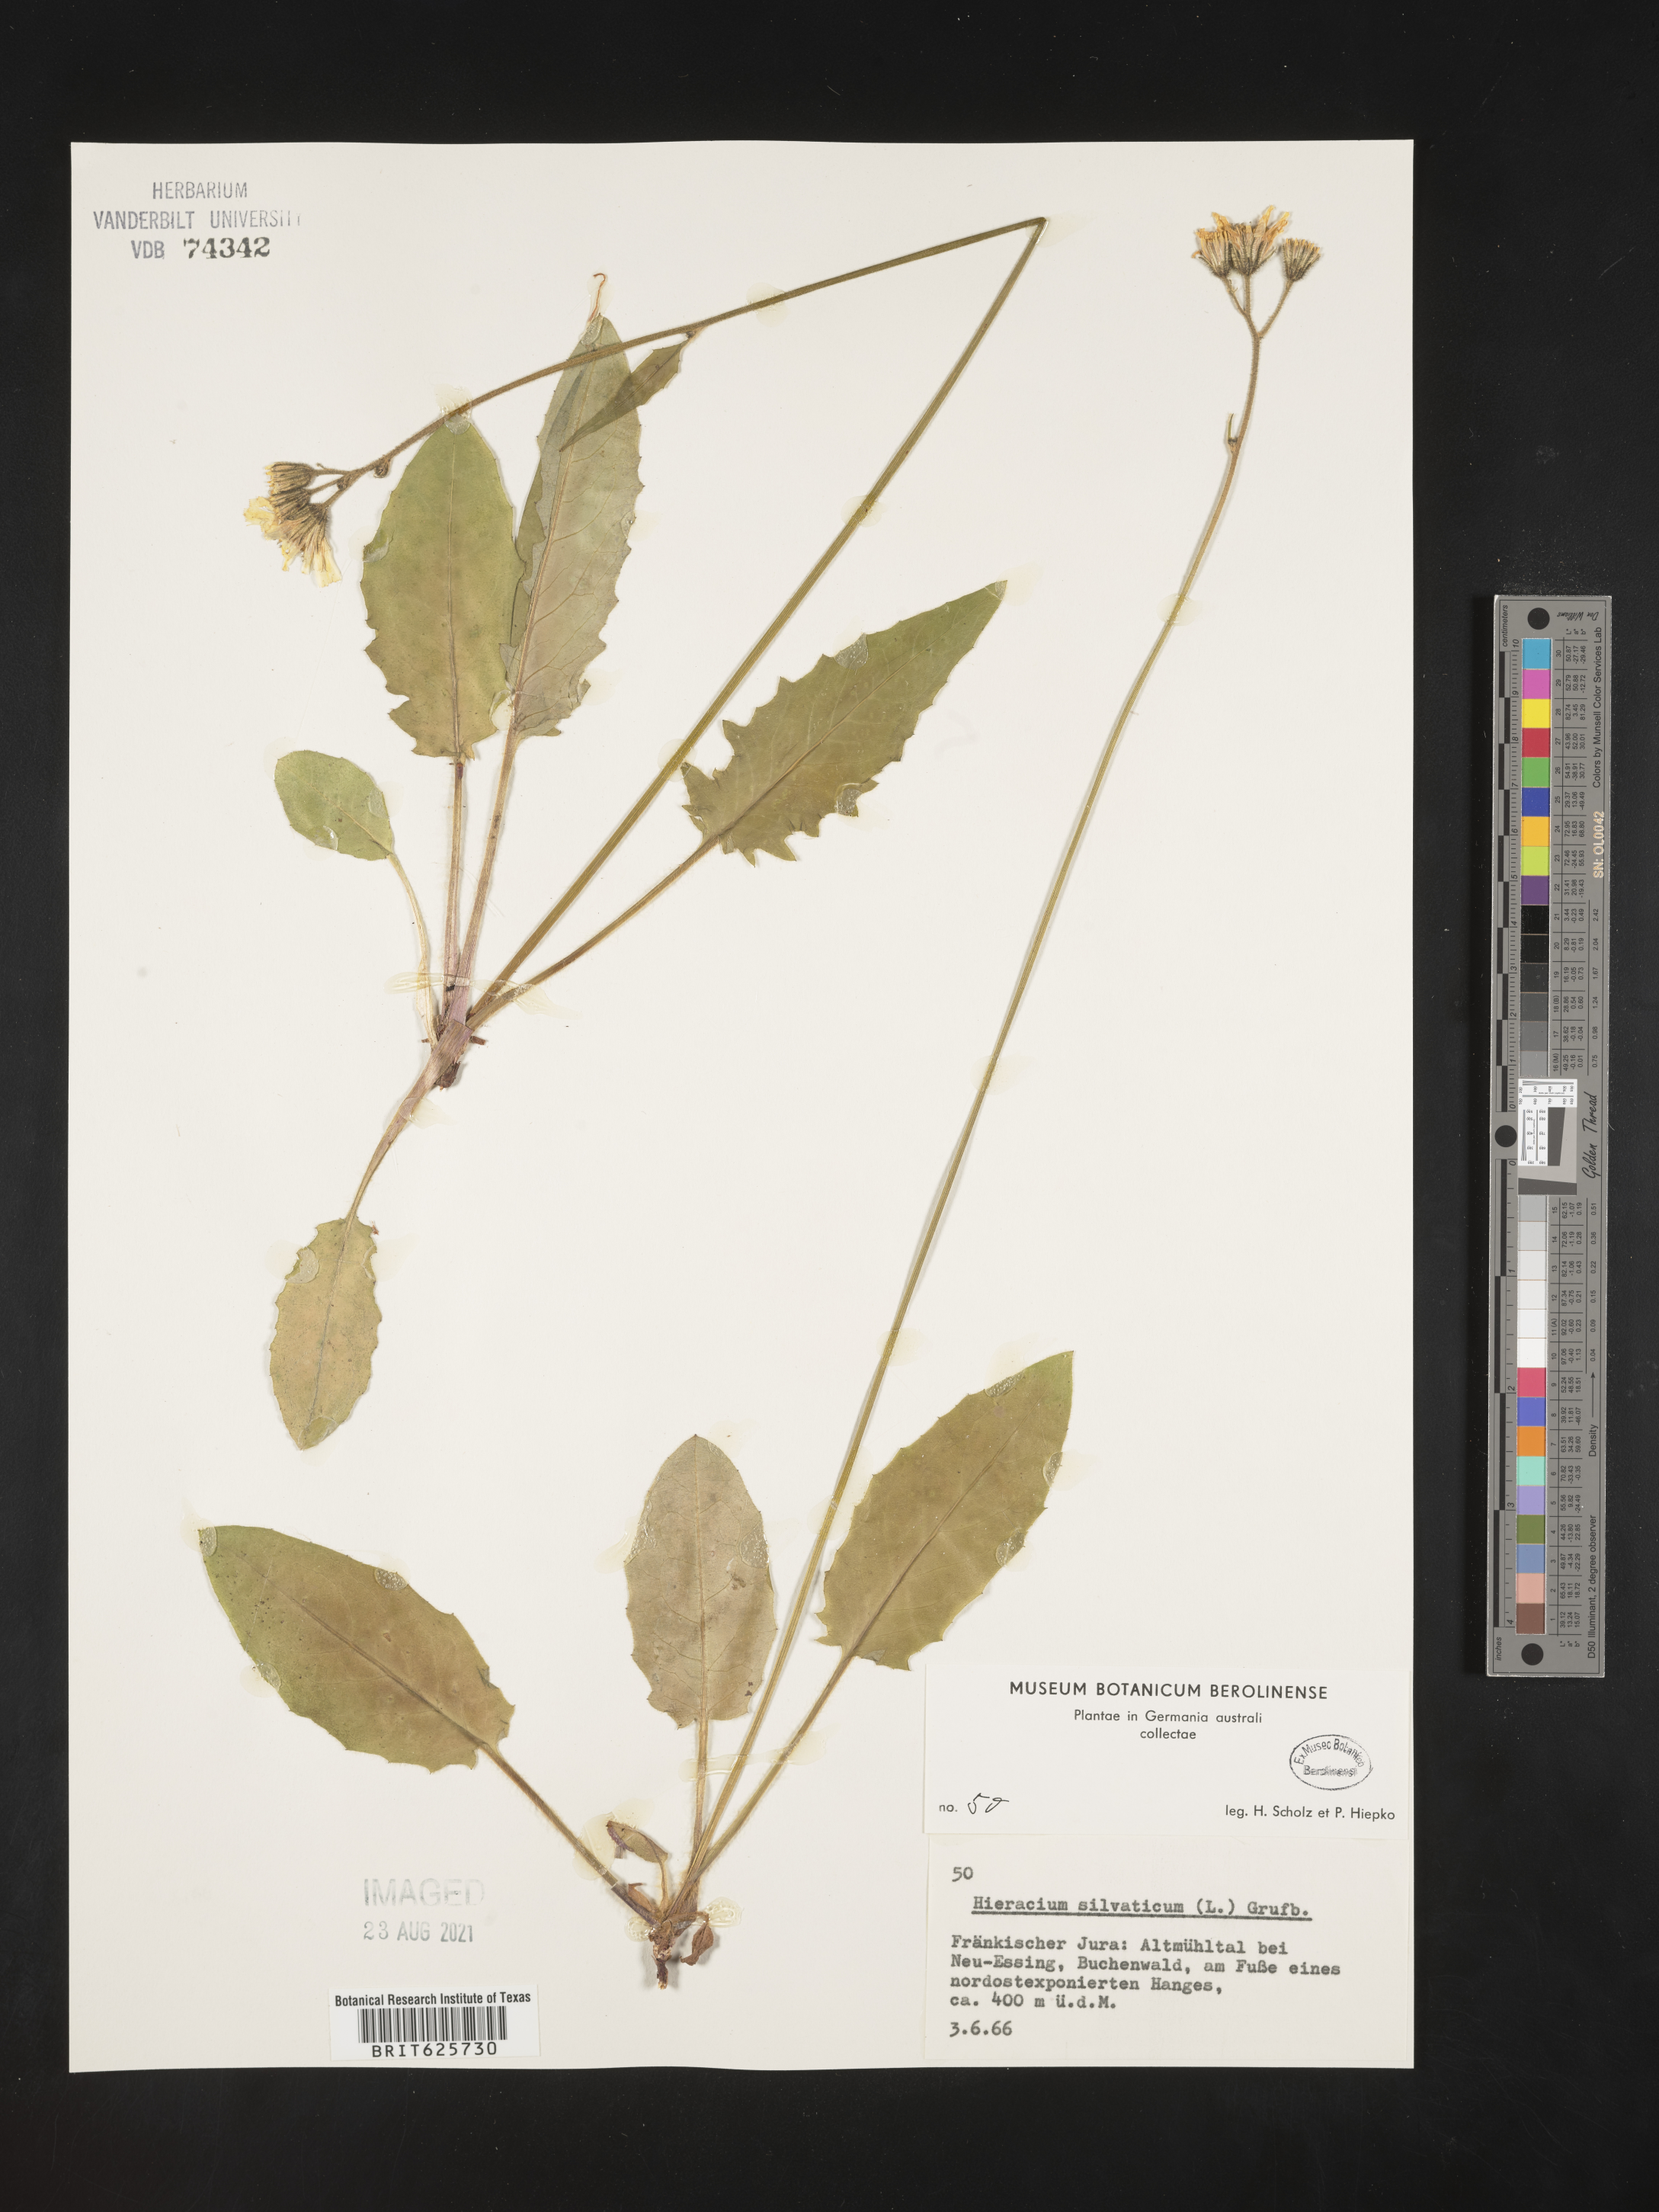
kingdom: Plantae
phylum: Tracheophyta
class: Magnoliopsida
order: Asterales
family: Asteraceae
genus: Hieracium
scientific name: Hieracium laevigatum
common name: Smooth hawkweed
